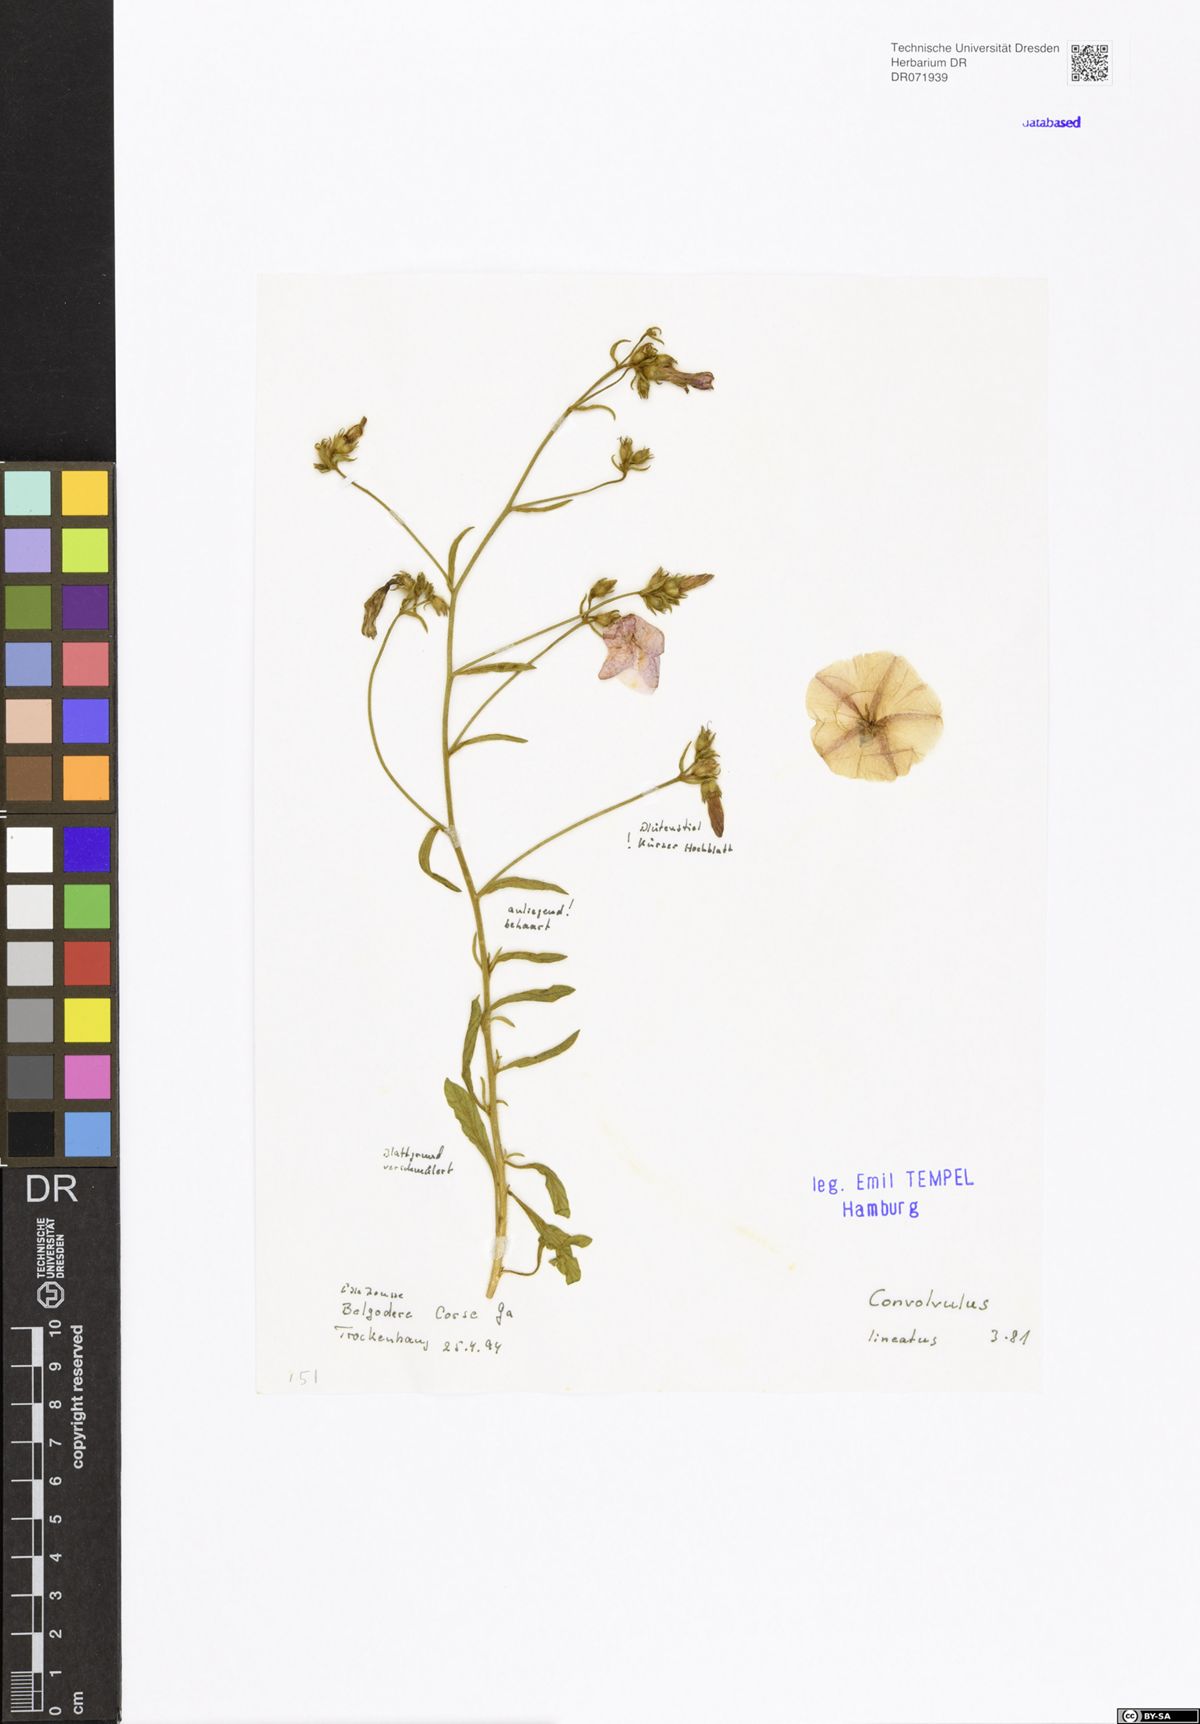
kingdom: Plantae
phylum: Tracheophyta
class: Magnoliopsida
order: Solanales
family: Convolvulaceae
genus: Convolvulus
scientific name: Convolvulus lineatus
